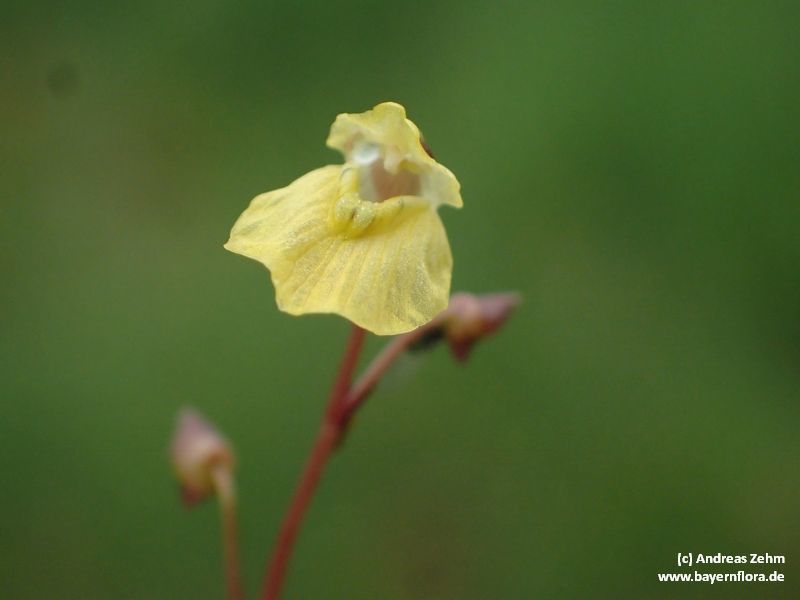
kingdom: Plantae
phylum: Tracheophyta
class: Magnoliopsida
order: Lamiales
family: Lentibulariaceae
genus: Utricularia
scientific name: Utricularia minor
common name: Lesser bladderwort
